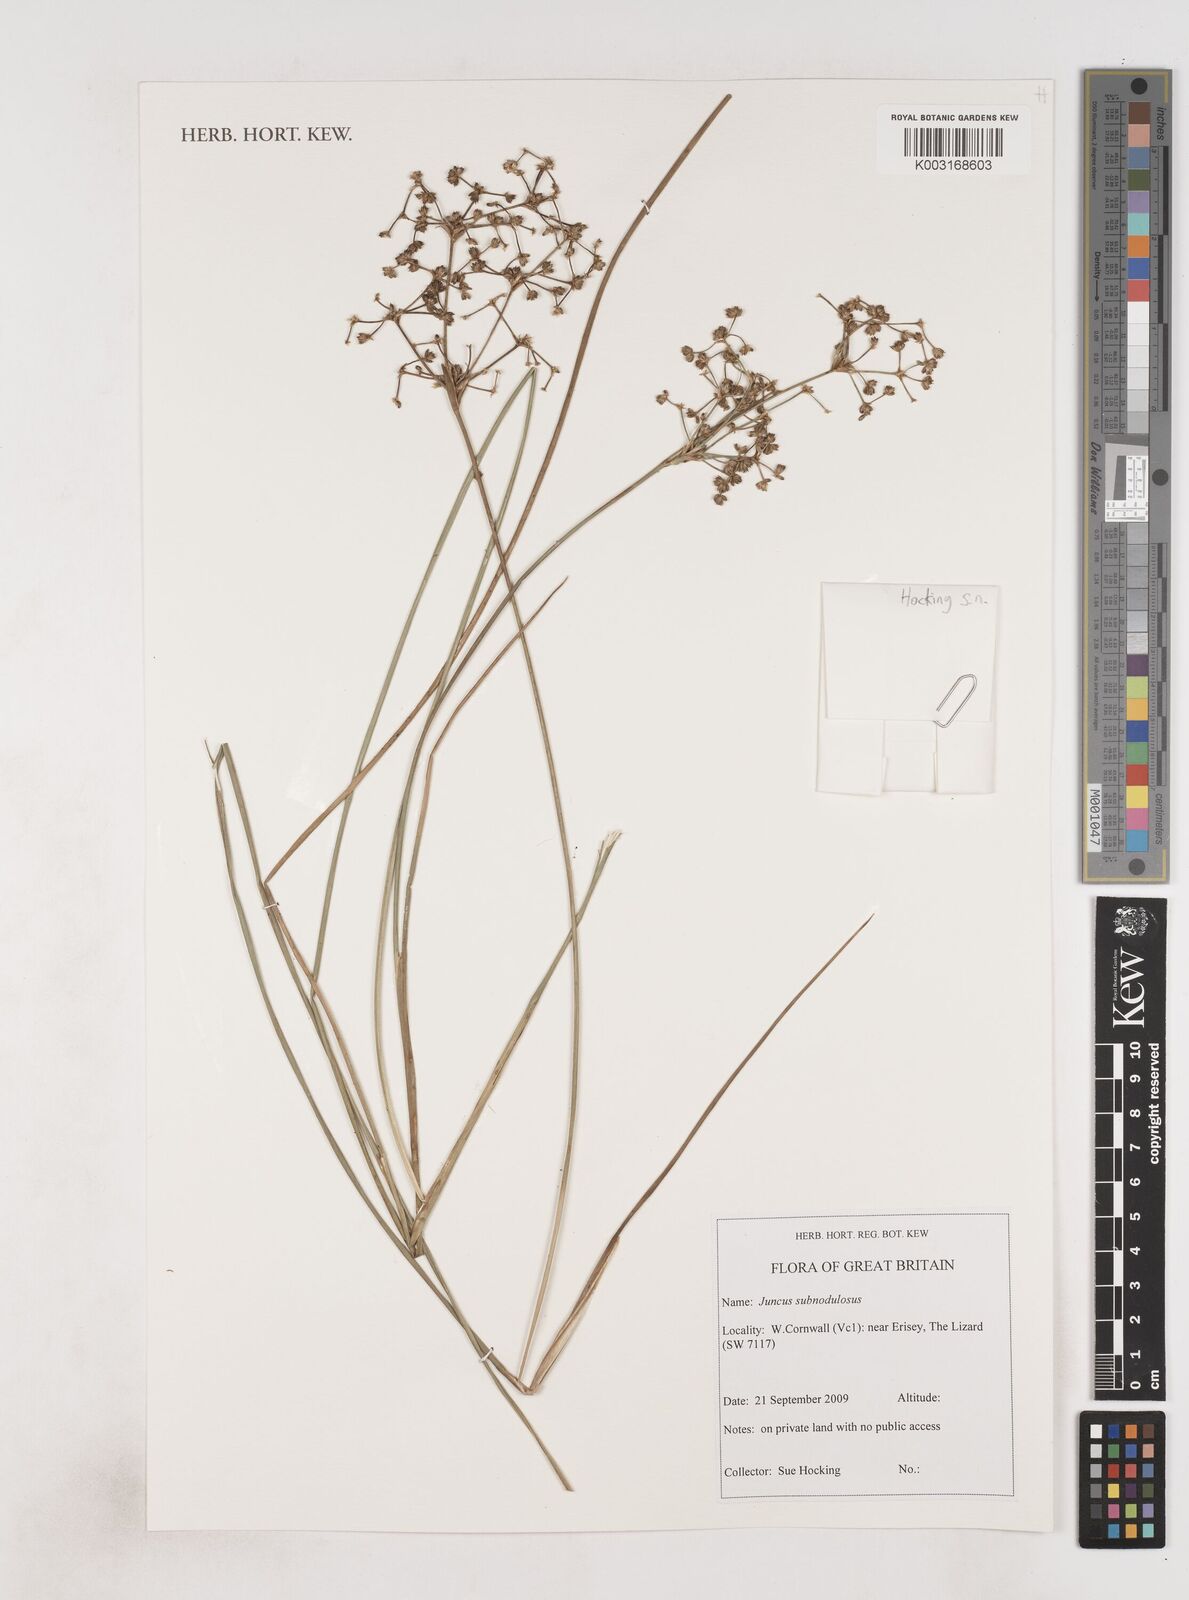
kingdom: Plantae
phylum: Tracheophyta
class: Liliopsida
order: Poales
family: Juncaceae
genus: Juncus
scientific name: Juncus subnodulosus
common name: Blunt-flowered rush
